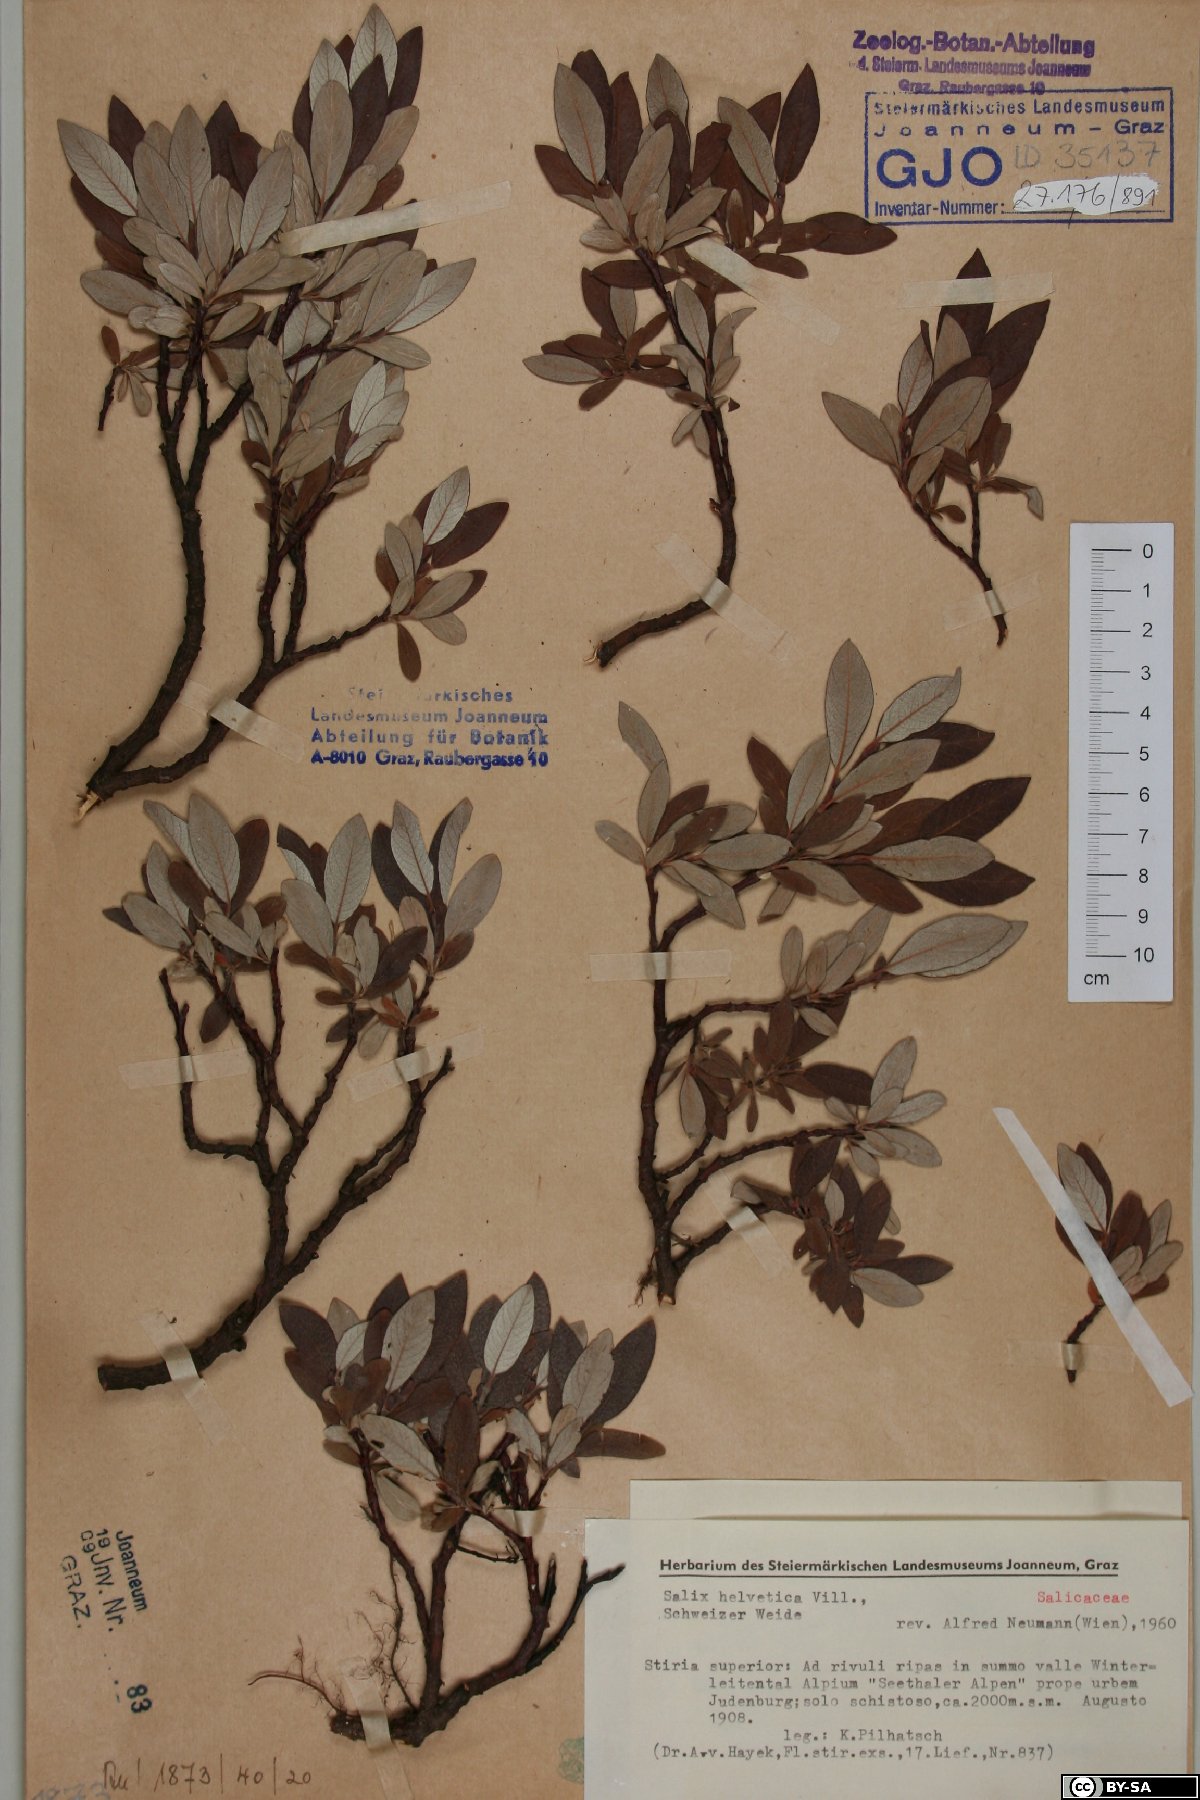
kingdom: Plantae
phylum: Tracheophyta
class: Magnoliopsida
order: Malpighiales
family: Salicaceae
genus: Salix
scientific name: Salix helvetica
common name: Swiss willow
